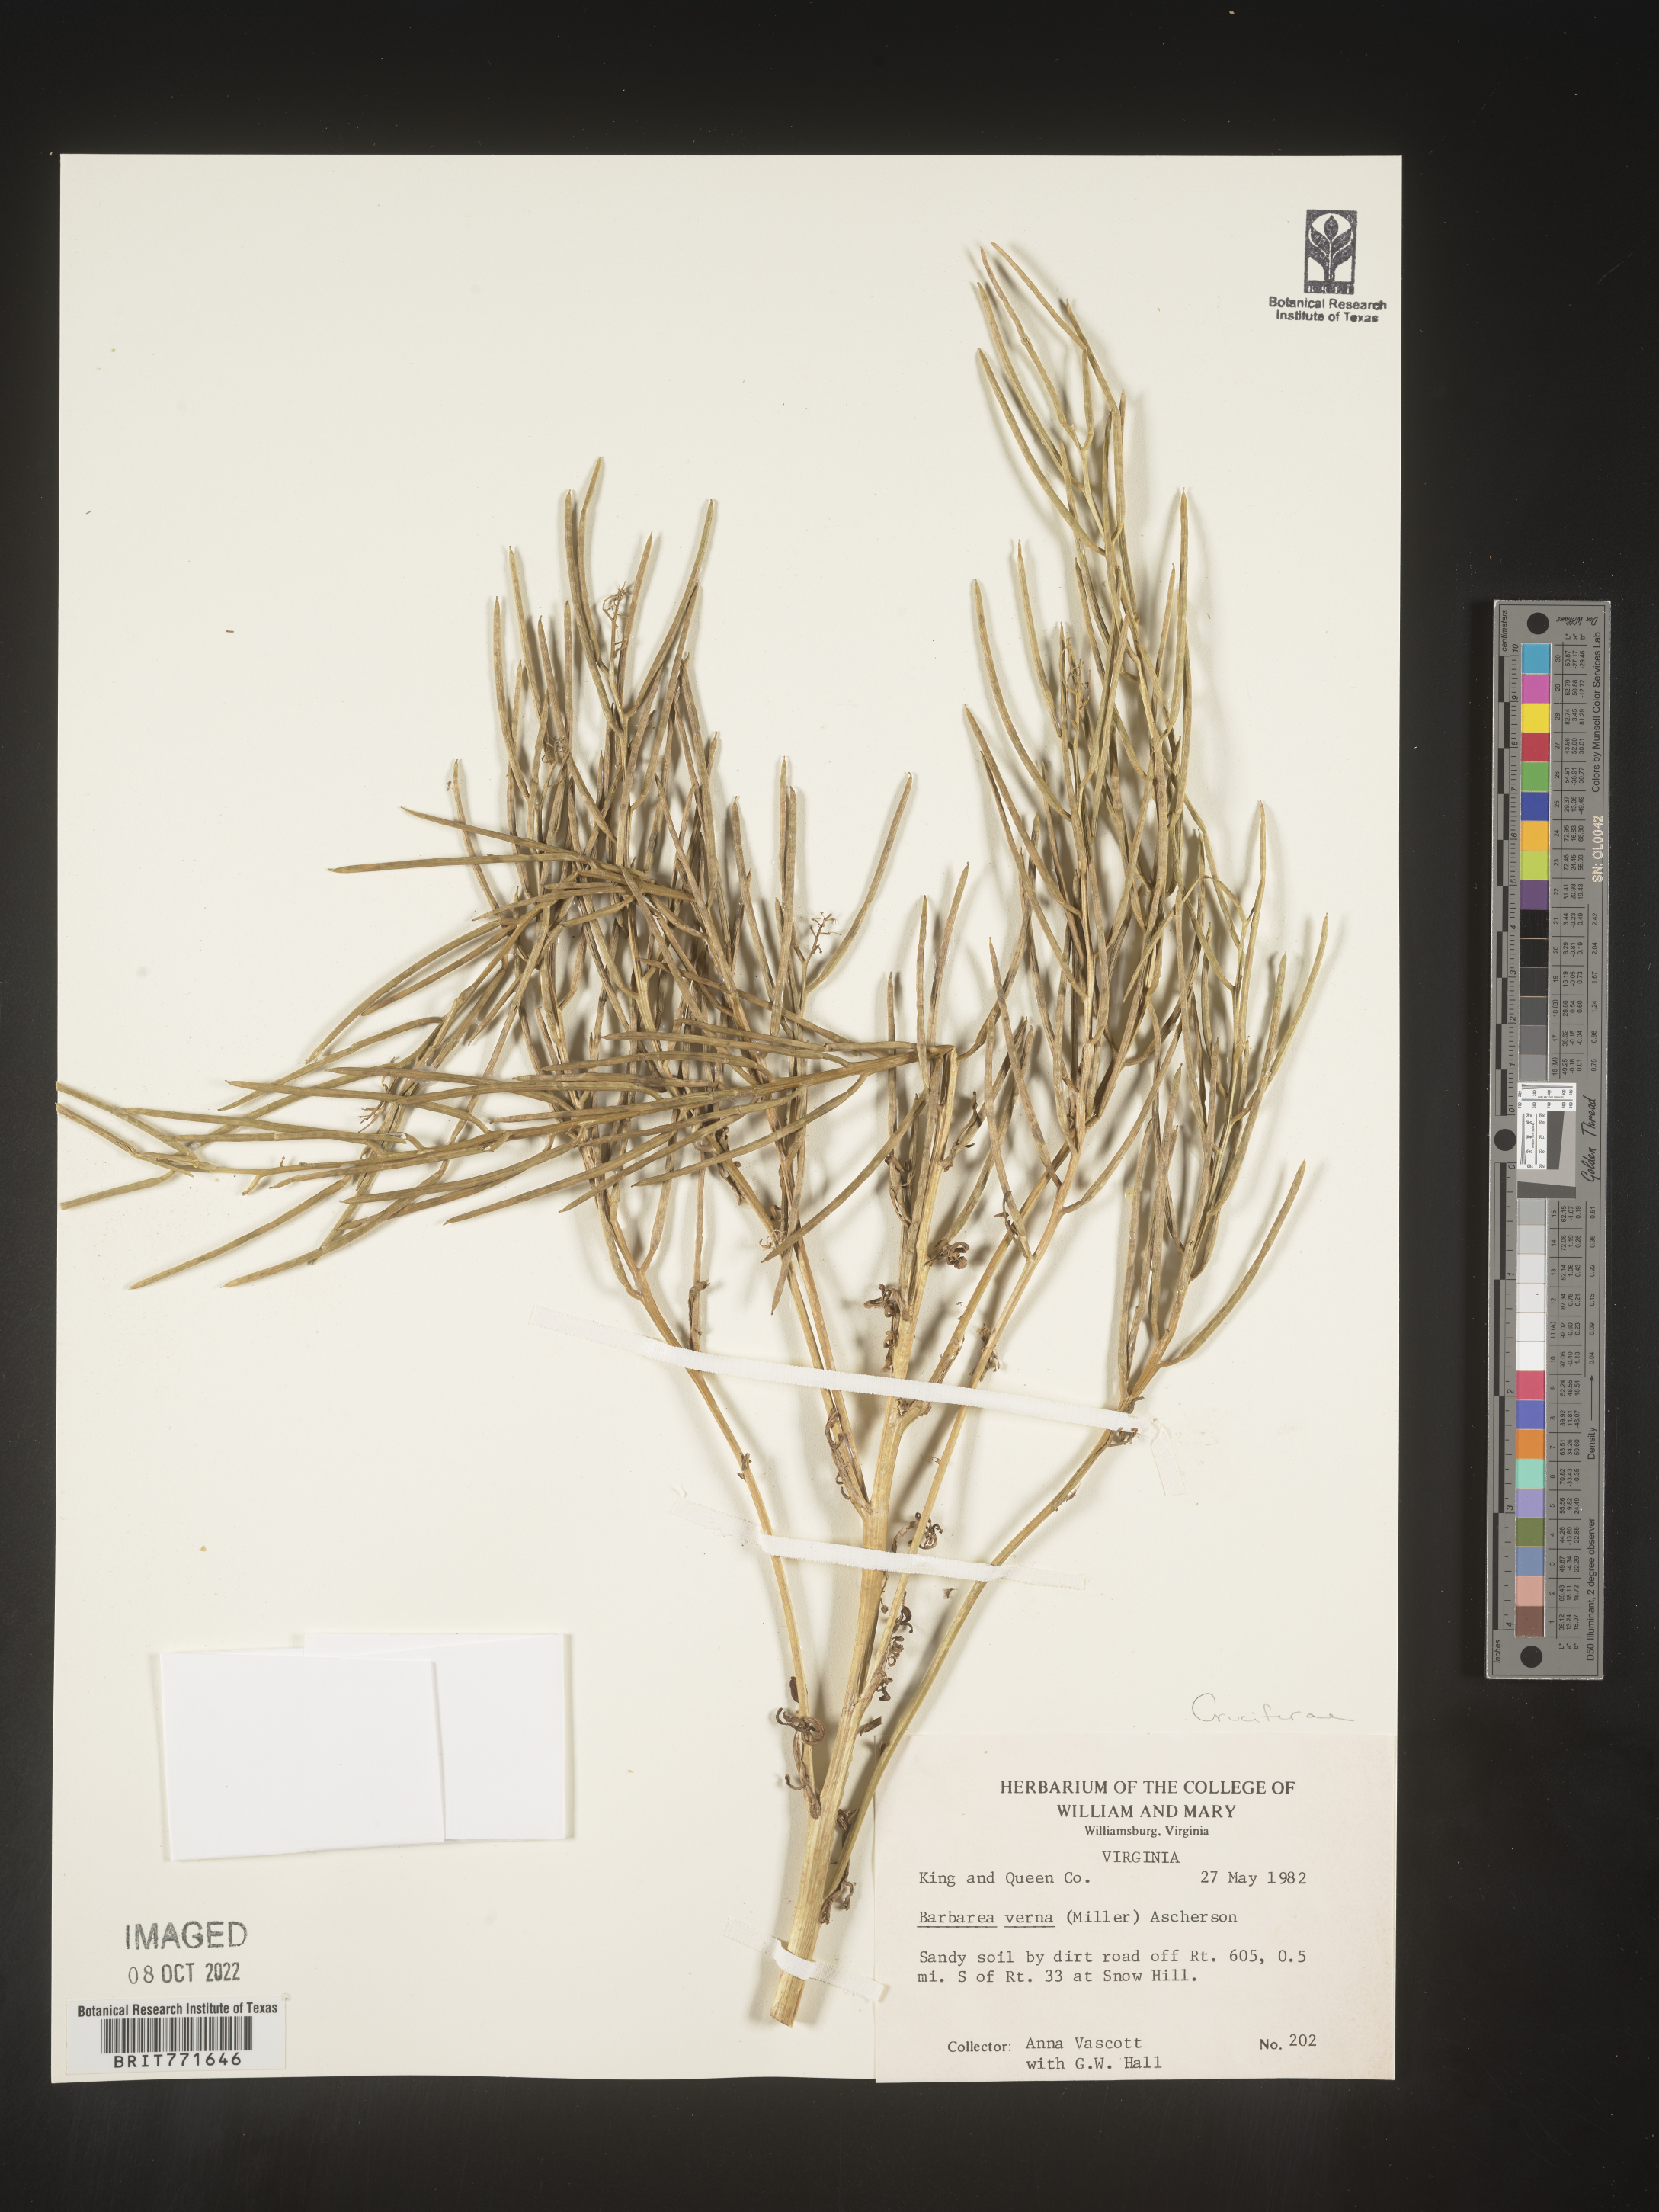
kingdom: Plantae
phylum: Tracheophyta
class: Magnoliopsida
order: Brassicales
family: Brassicaceae
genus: Barbarea
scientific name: Barbarea verna
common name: American cress
